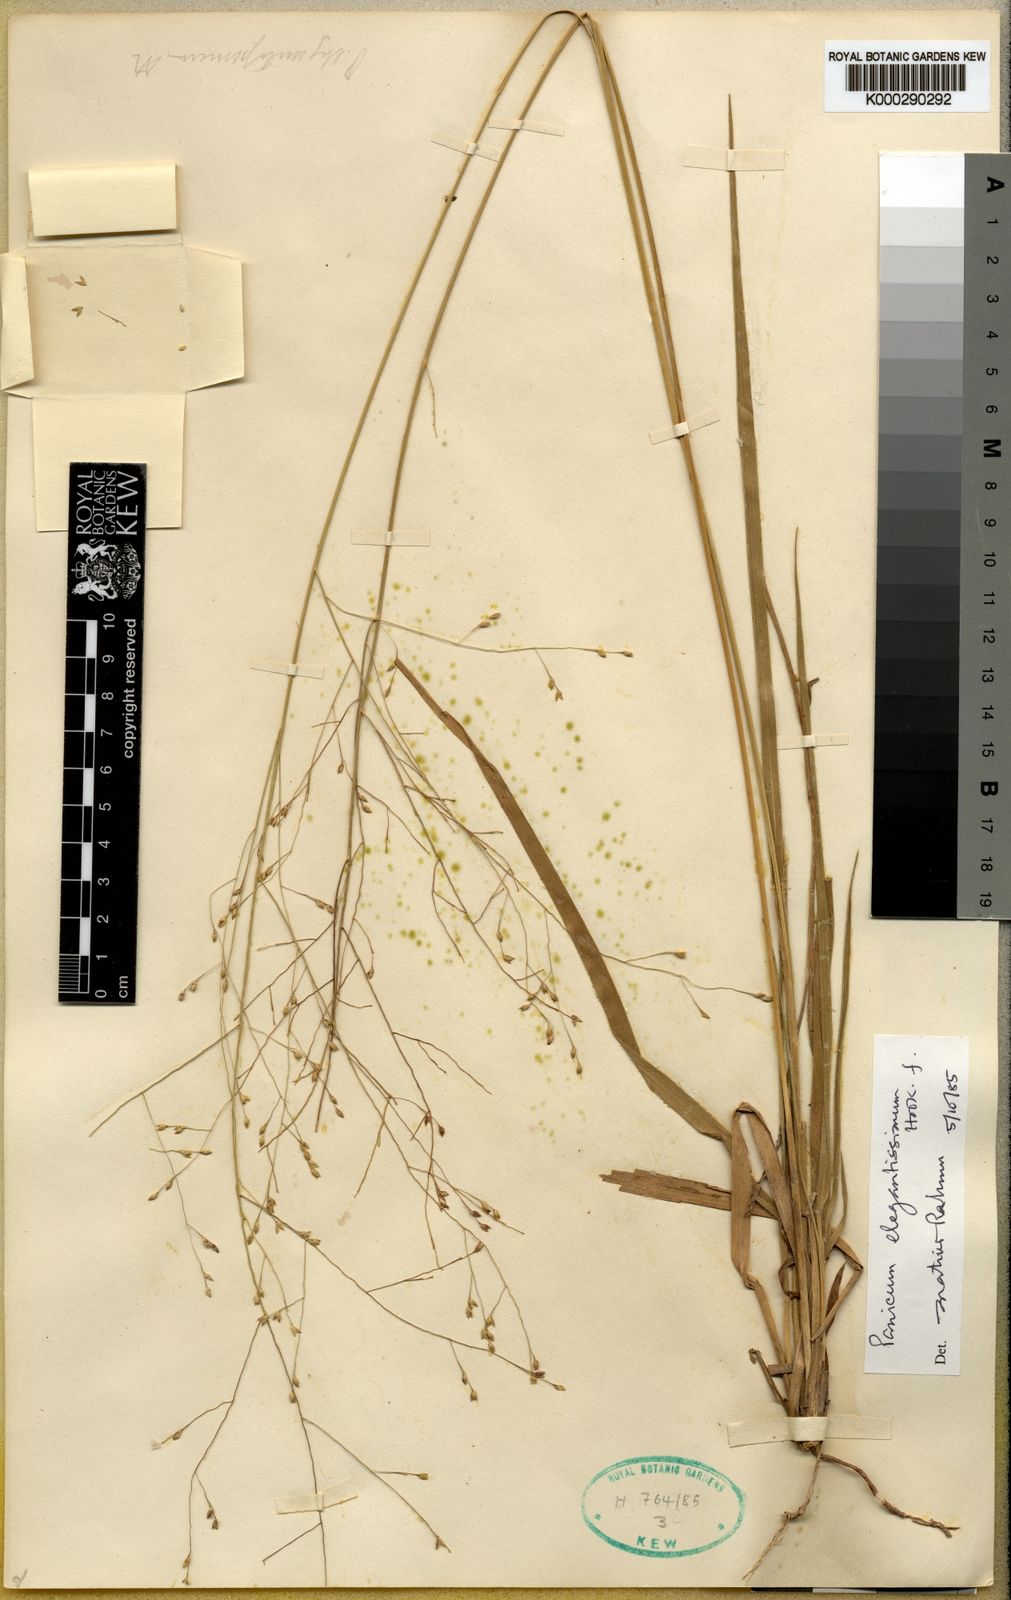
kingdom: Plantae
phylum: Tracheophyta
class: Liliopsida
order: Poales
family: Poaceae
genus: Panicum
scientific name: Panicum curviflorum
